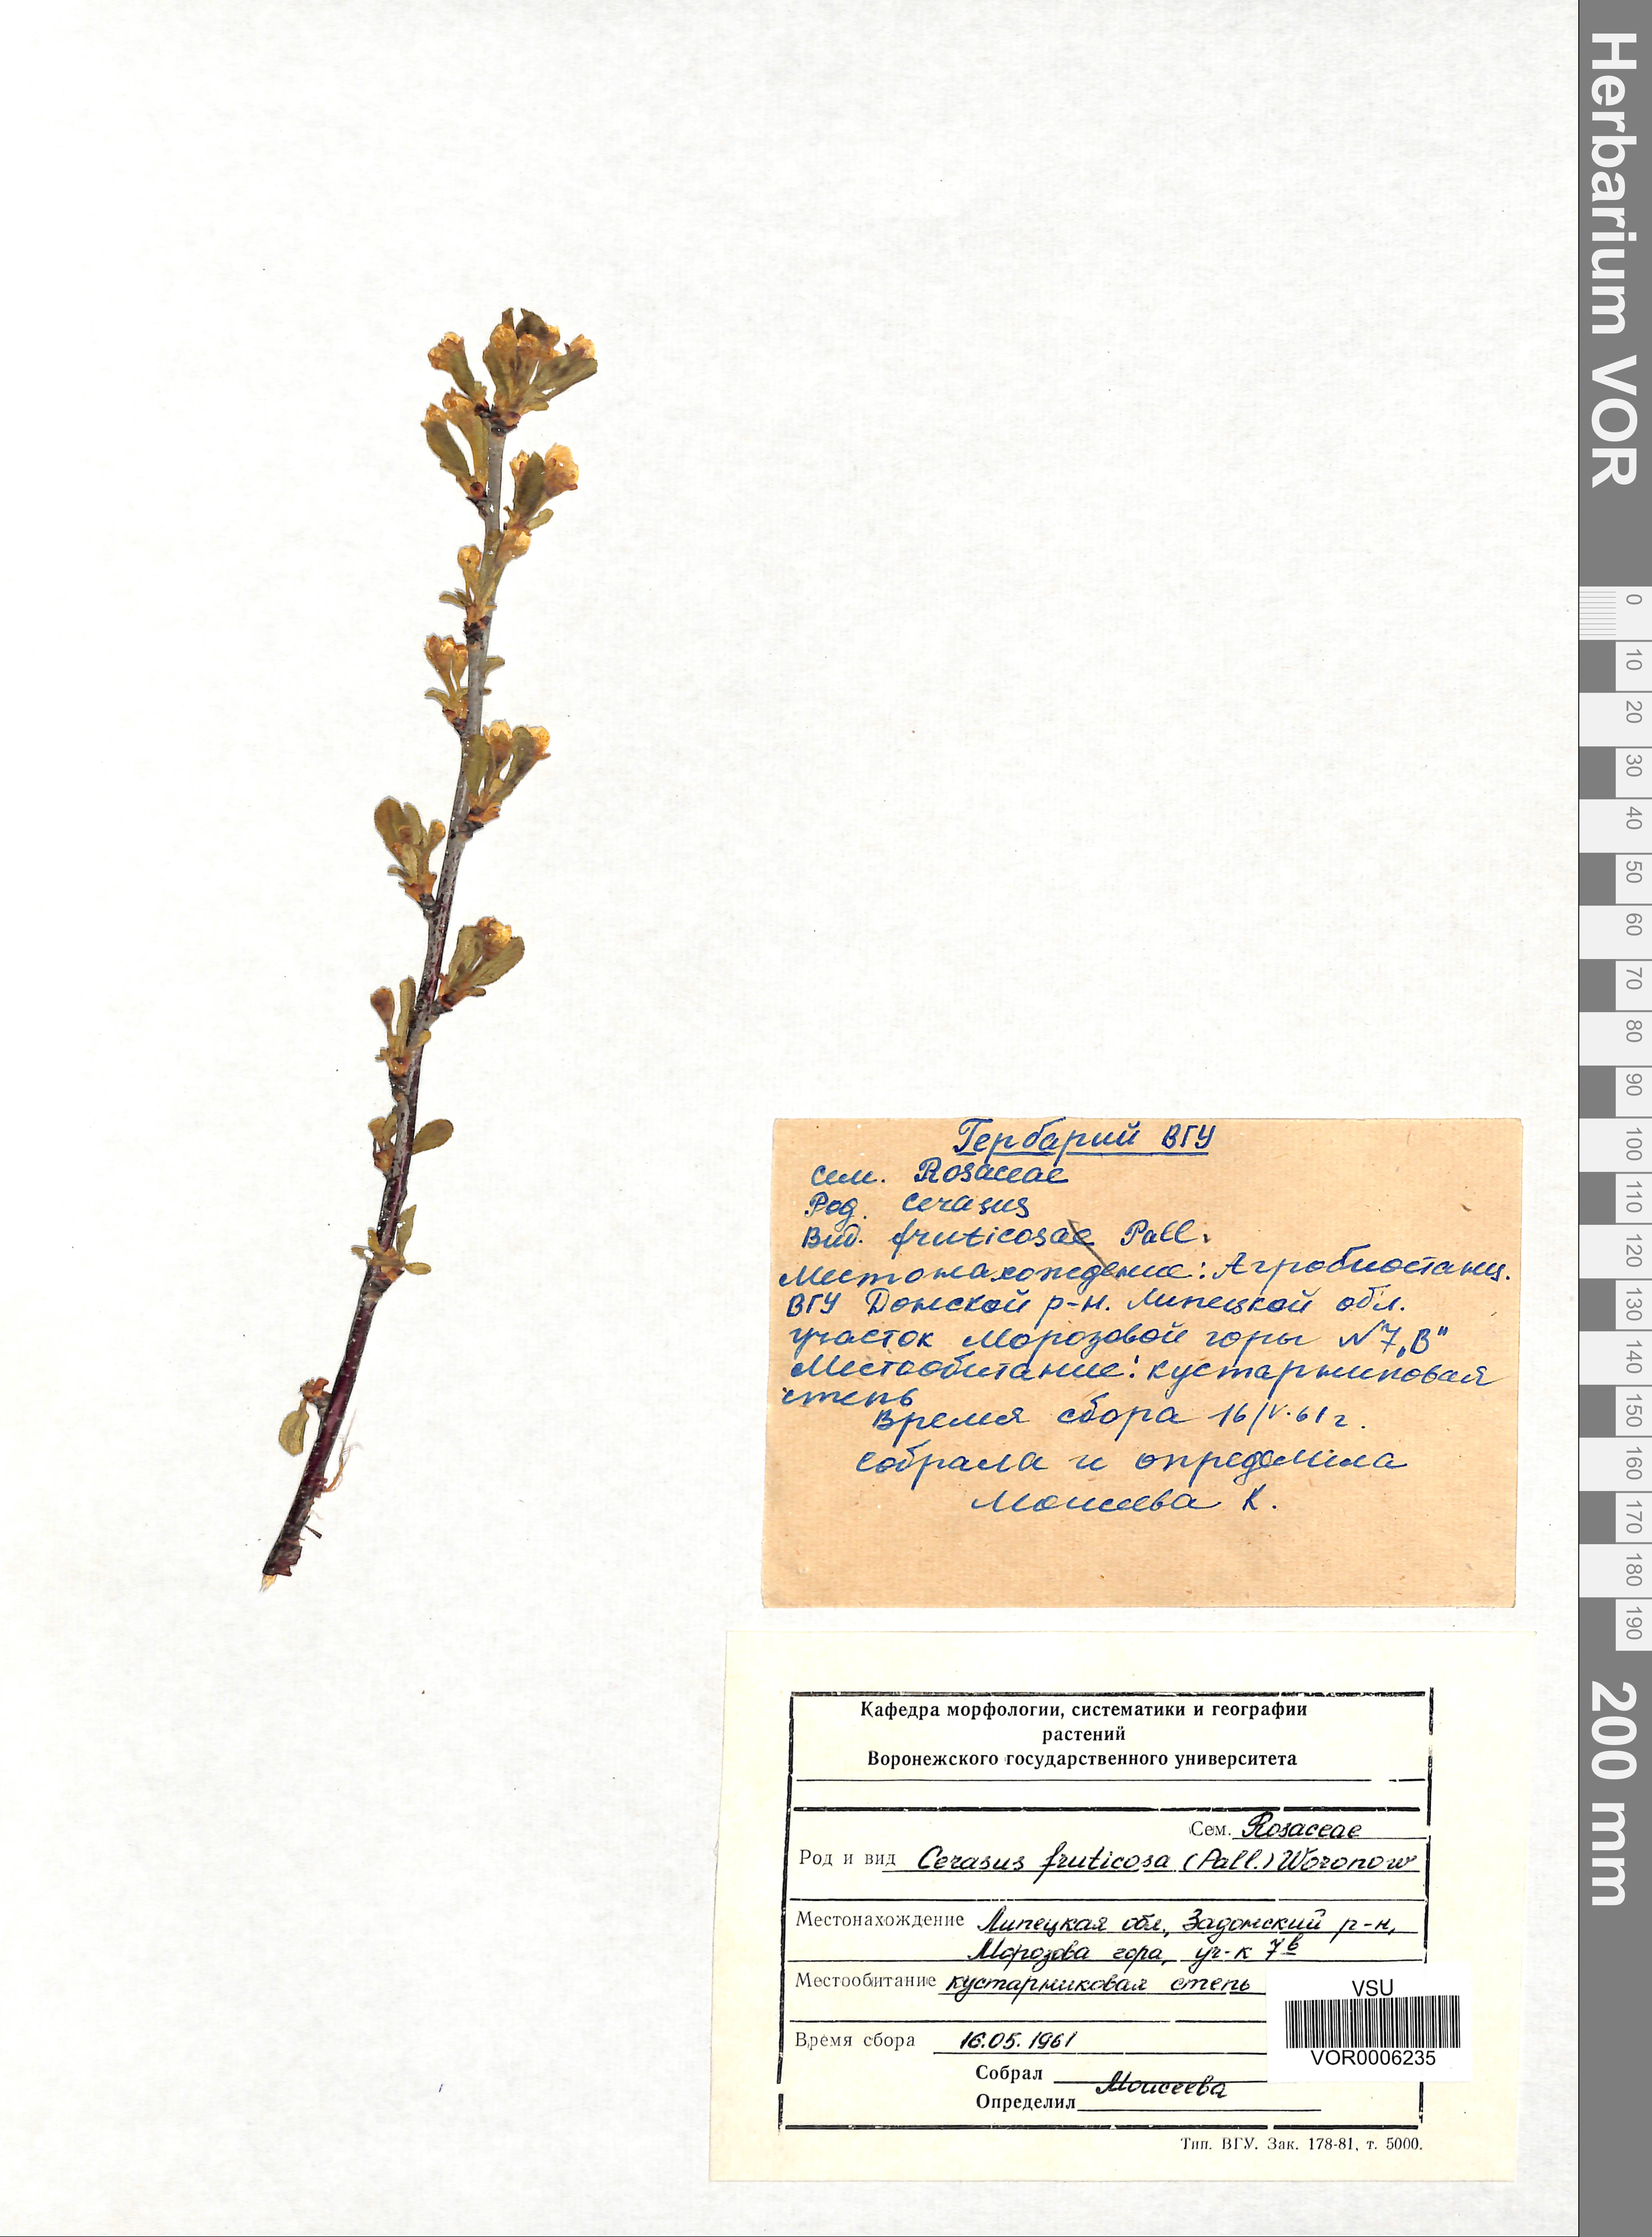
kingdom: Plantae
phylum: Tracheophyta
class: Magnoliopsida
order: Rosales
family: Rosaceae
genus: Prunus
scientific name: Prunus fruticosa
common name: European dwarf cherry
